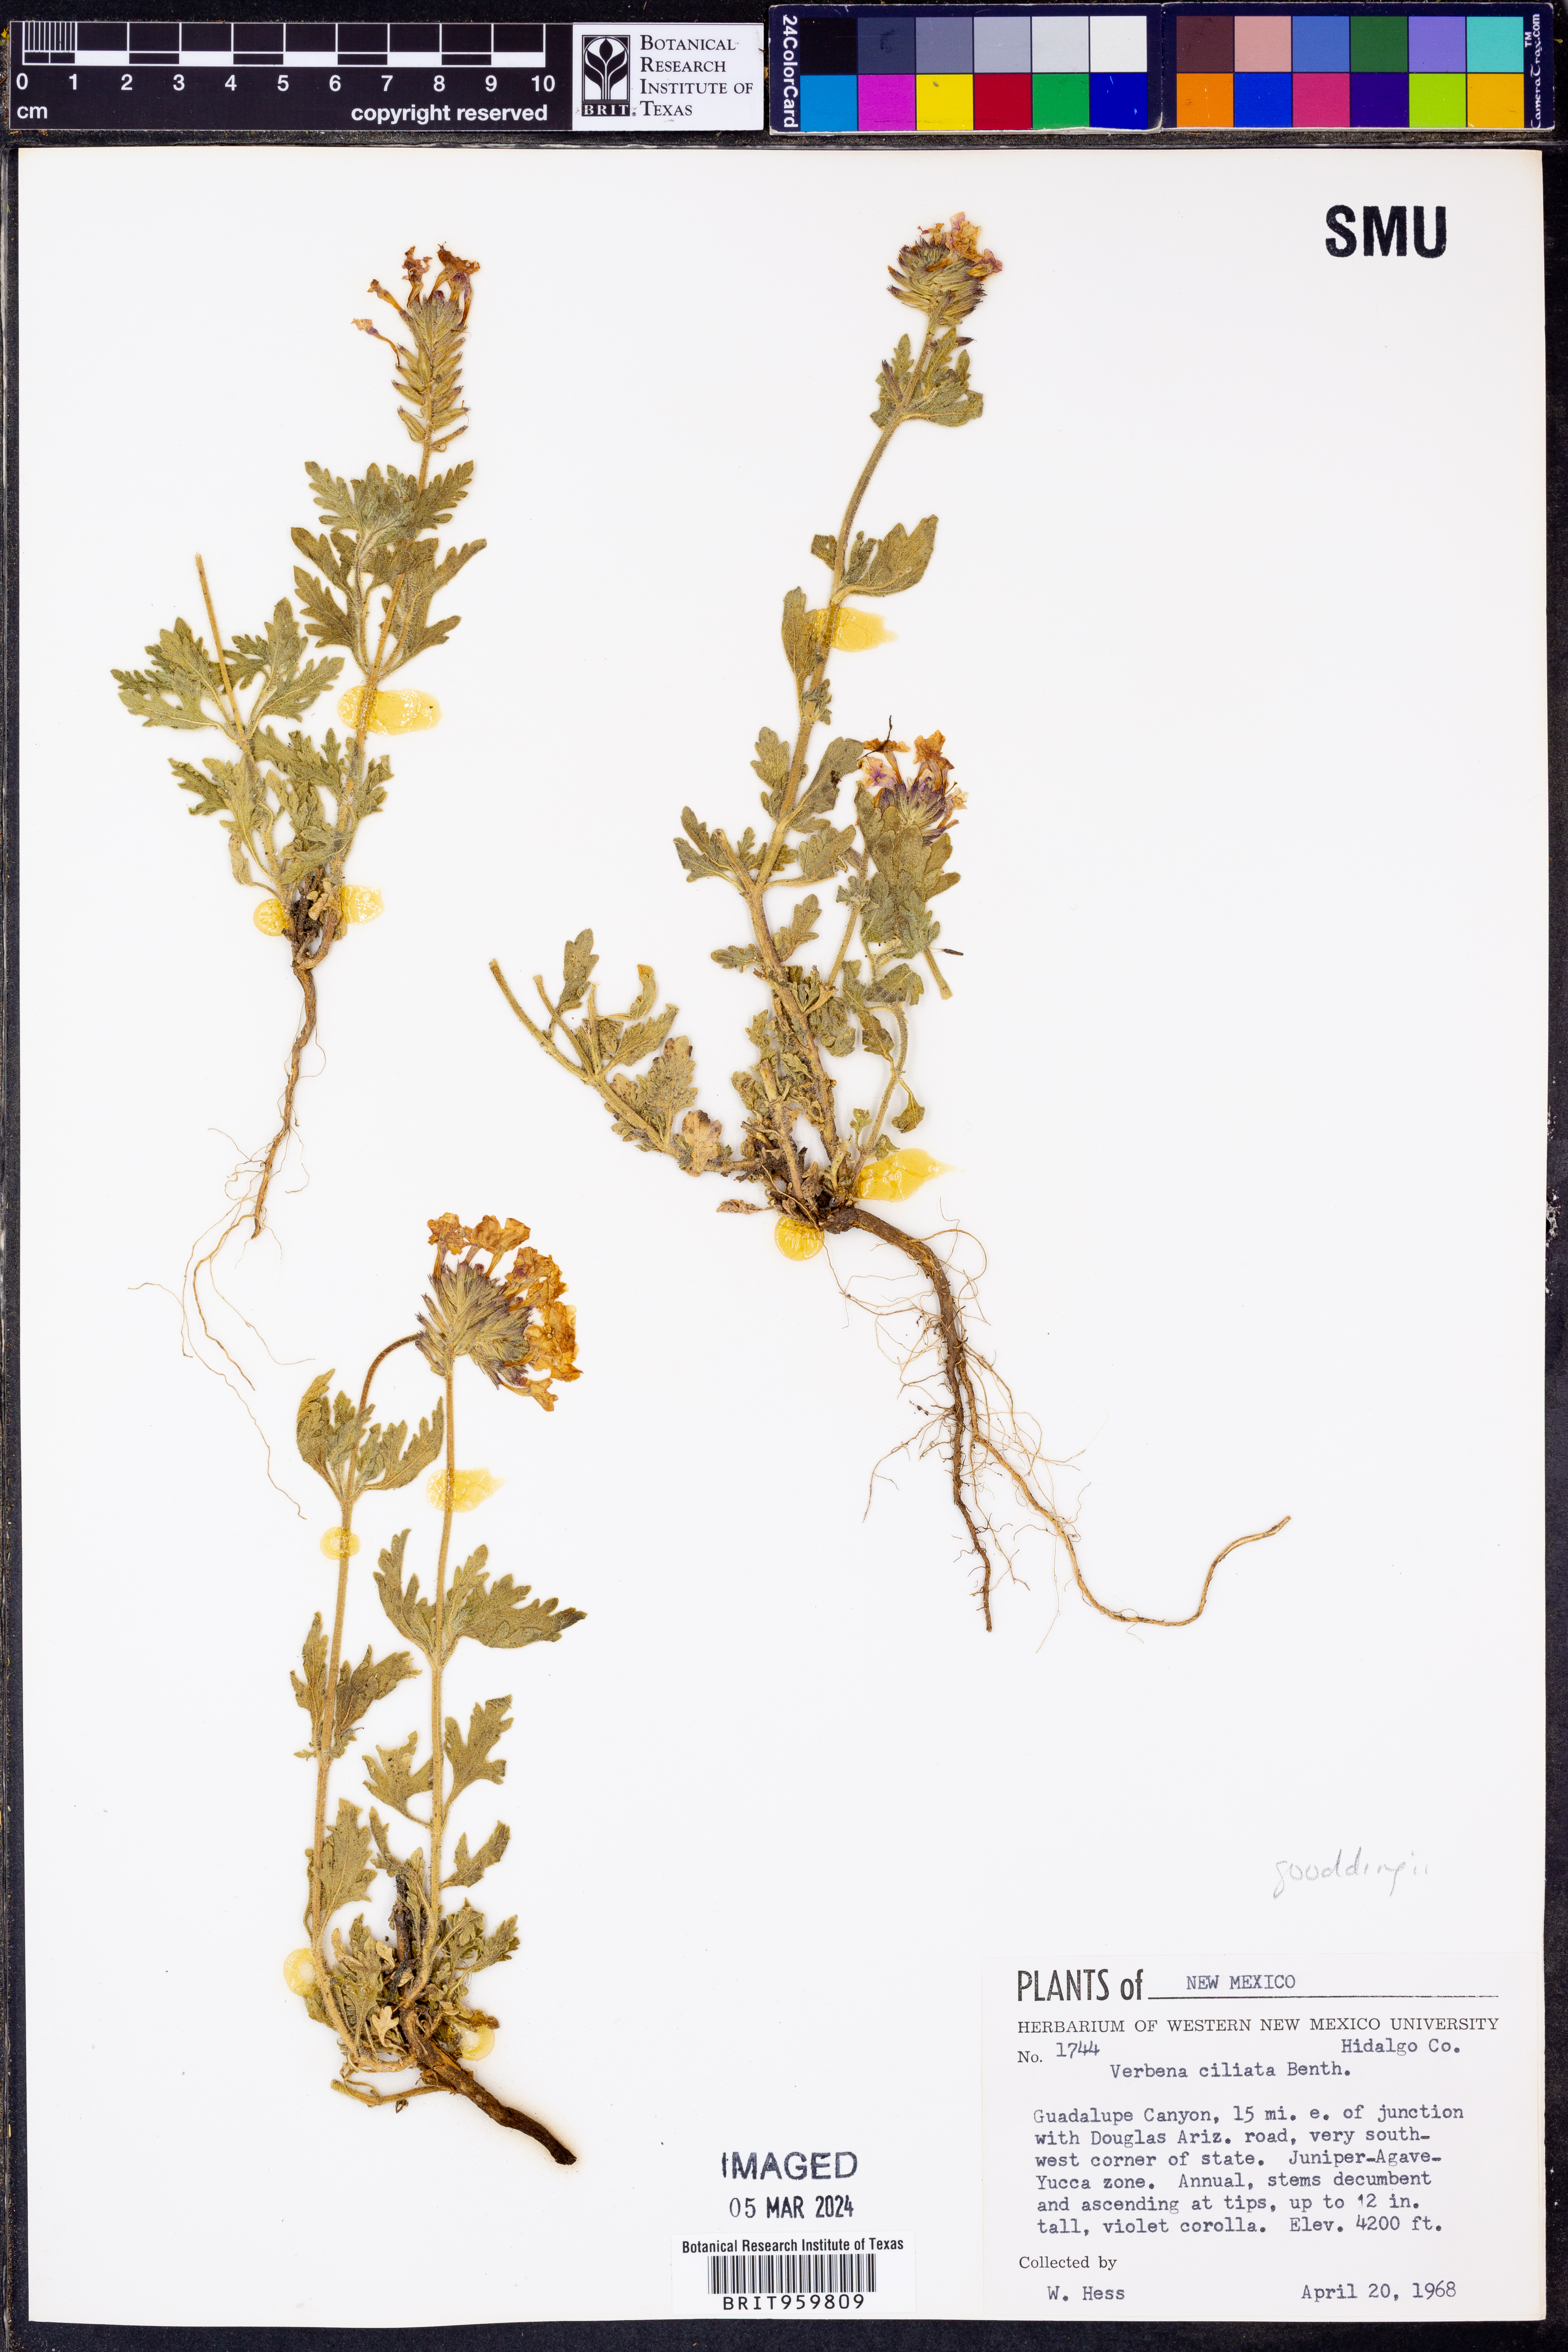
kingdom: Plantae
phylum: Tracheophyta
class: Magnoliopsida
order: Lamiales
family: Verbenaceae
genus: Verbena
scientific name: Verbena gooddingii
